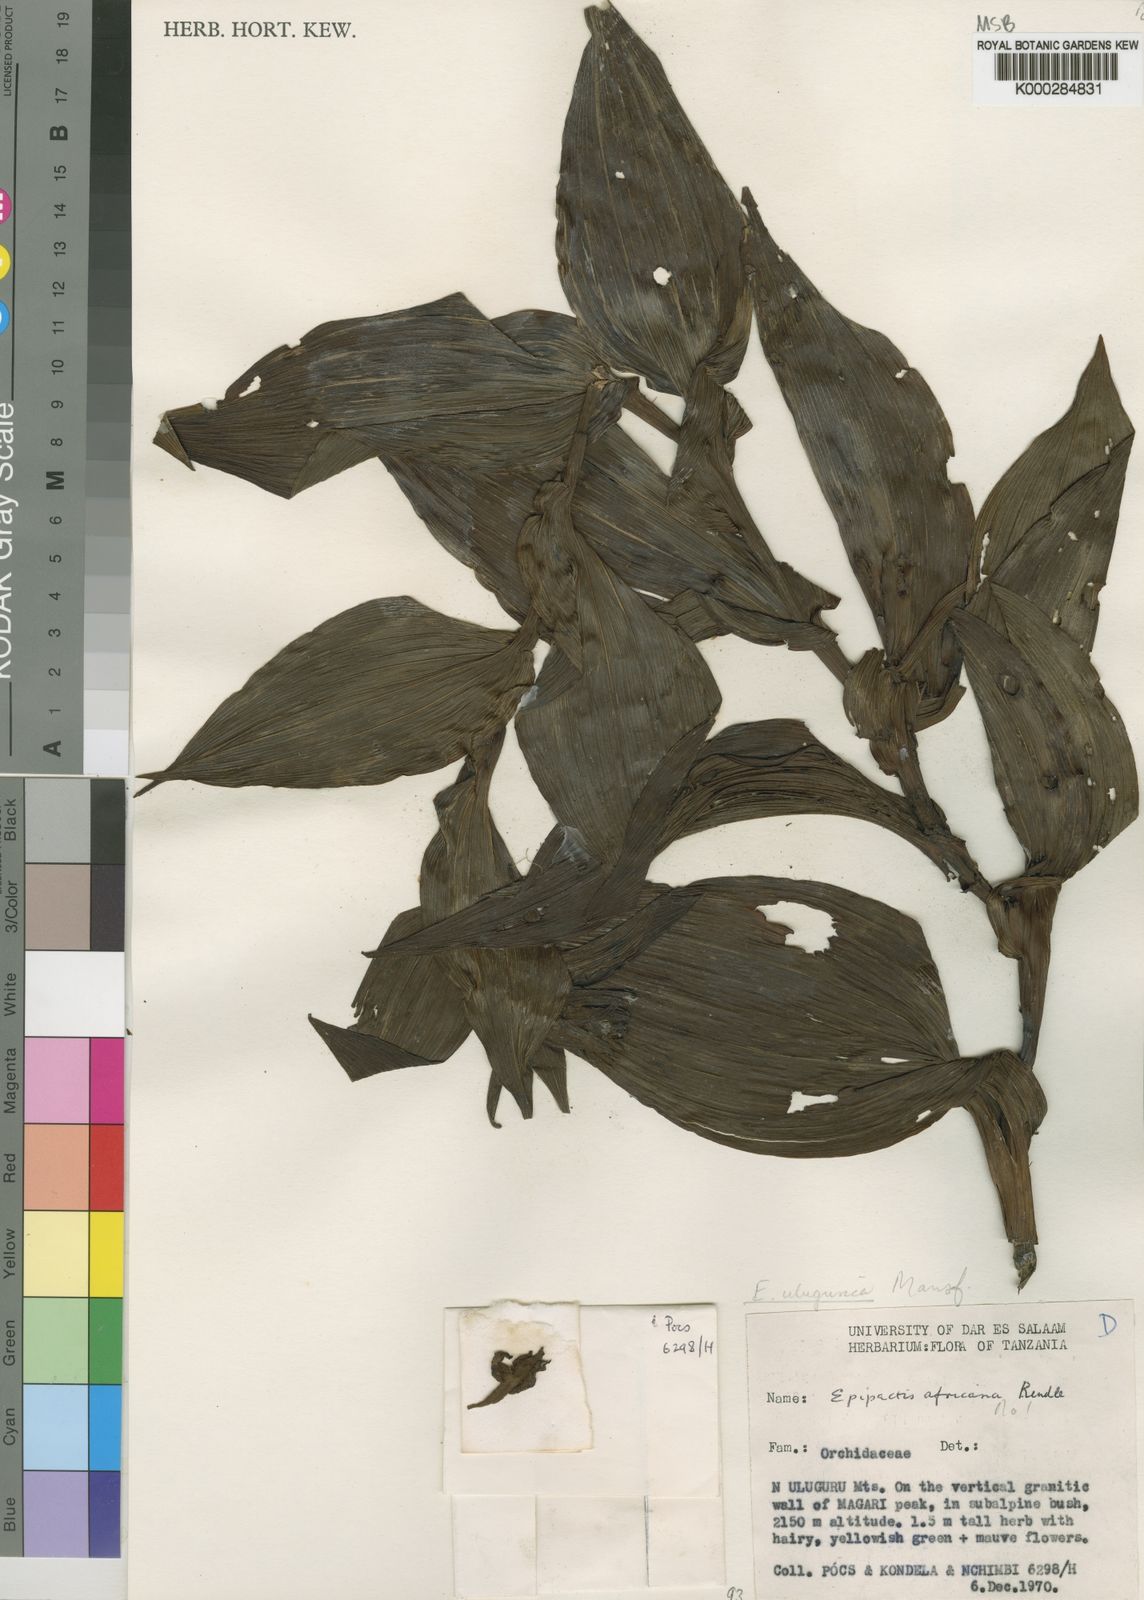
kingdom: Plantae
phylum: Tracheophyta
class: Liliopsida
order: Asparagales
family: Orchidaceae
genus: Epipactis
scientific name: Epipactis ulugurica
